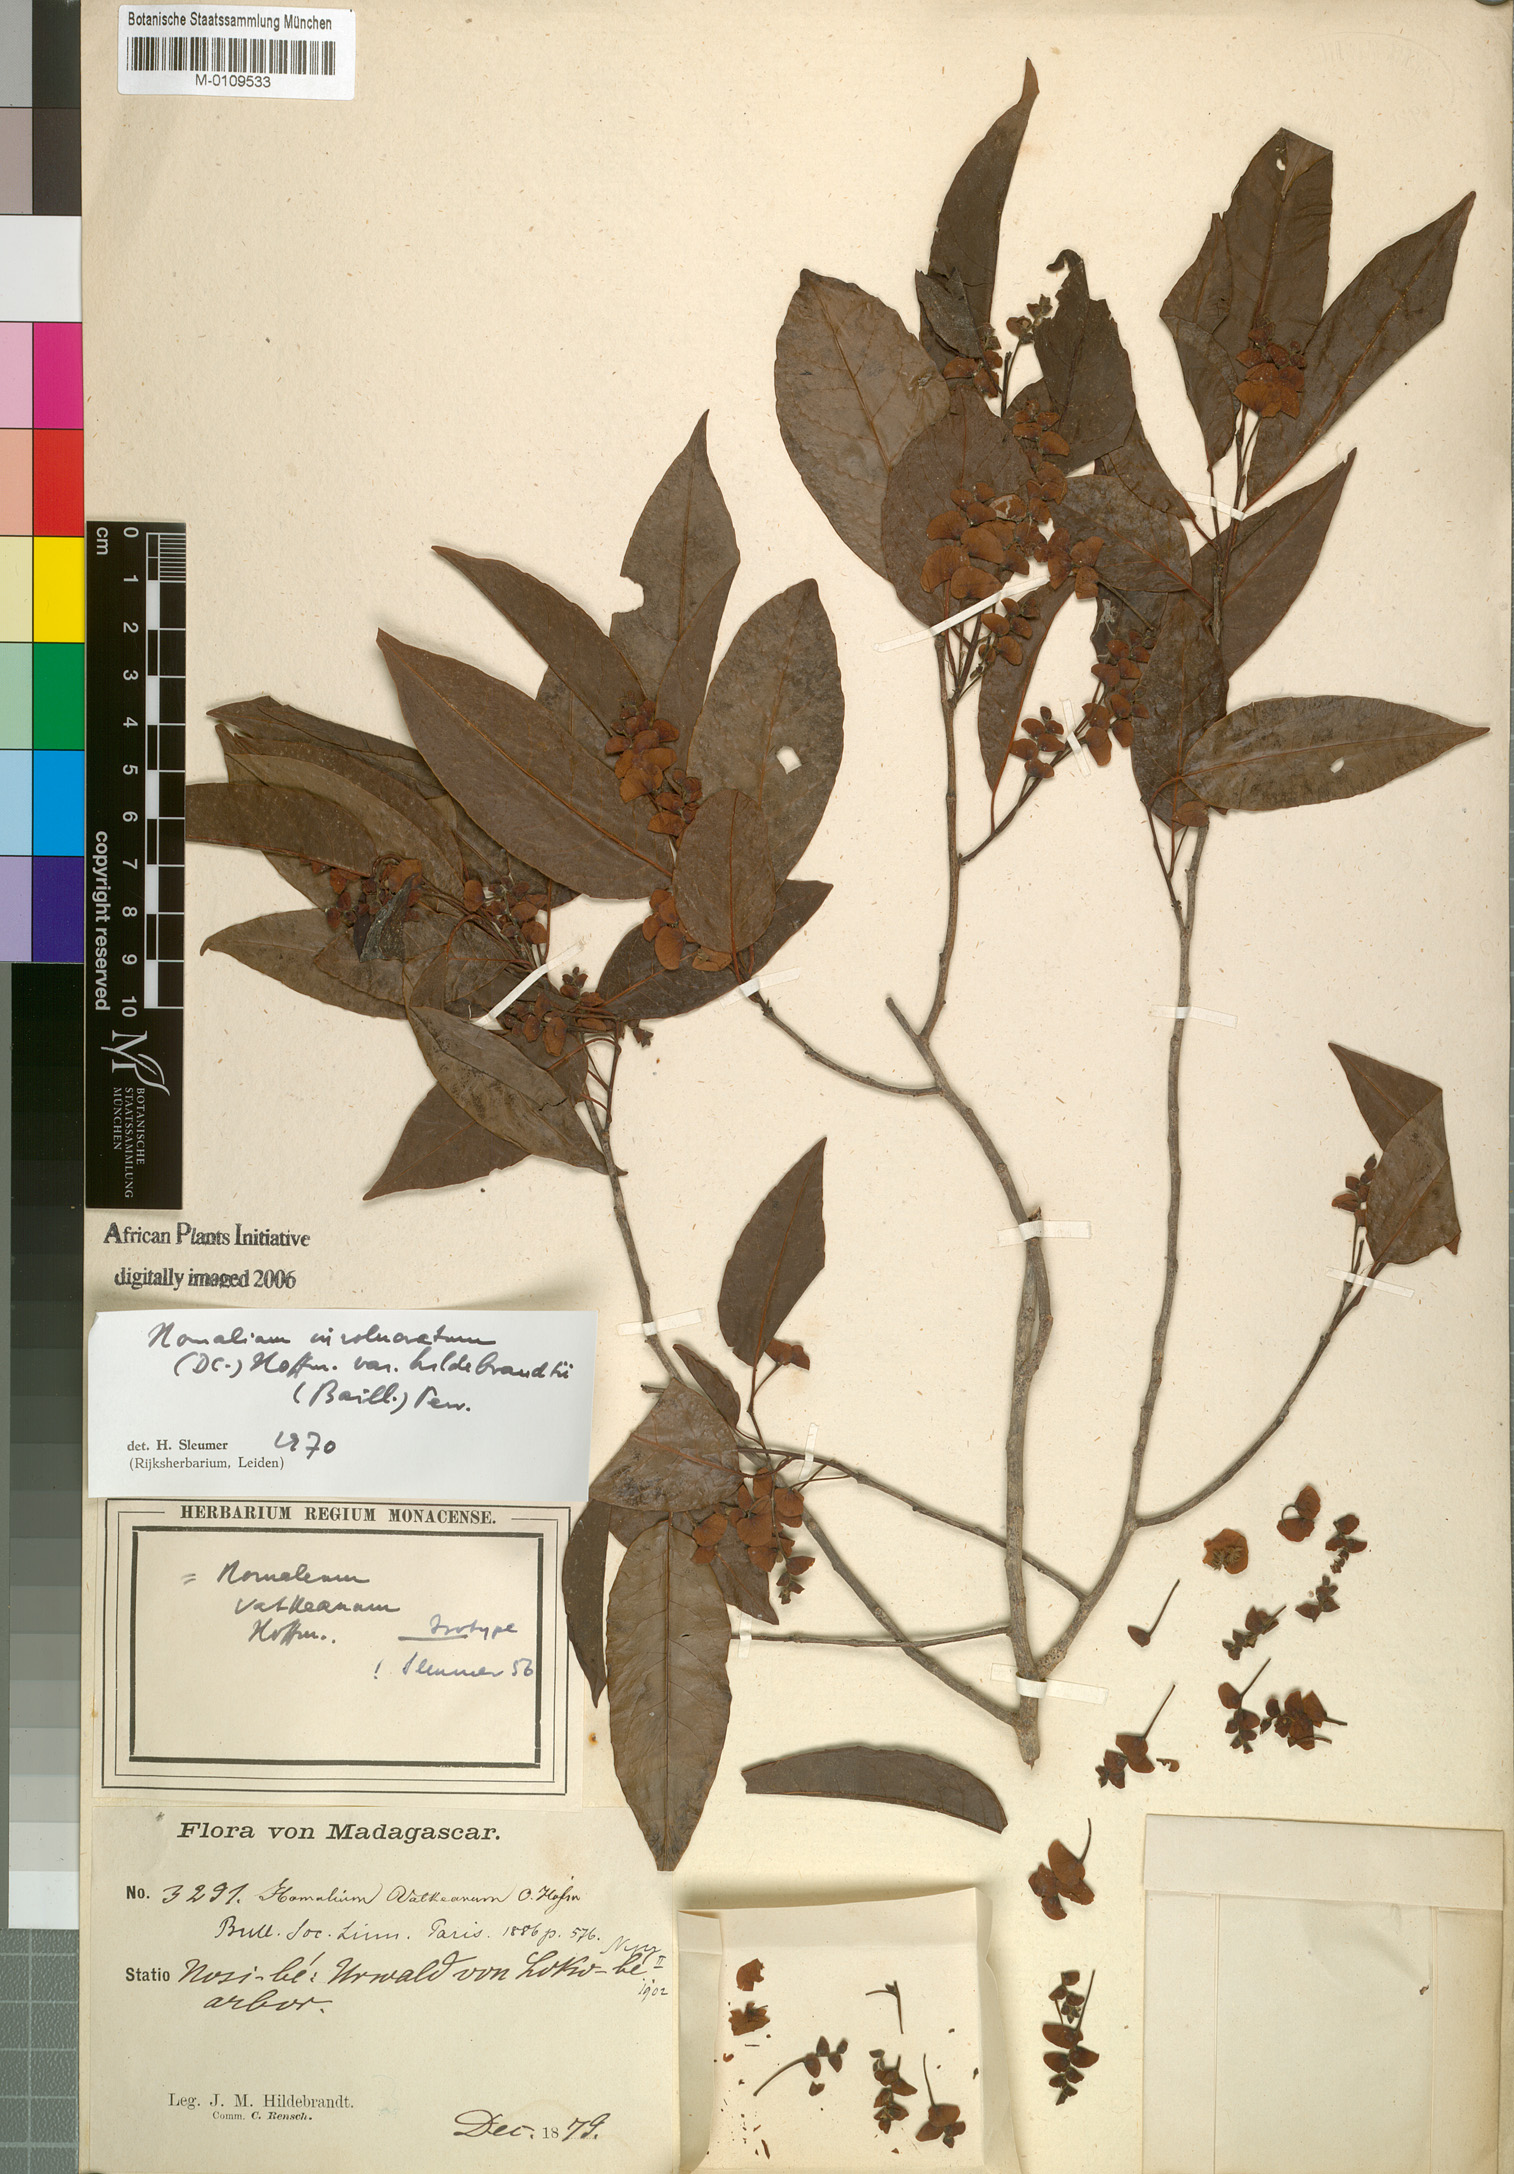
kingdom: Plantae
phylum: Tracheophyta
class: Magnoliopsida
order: Malpighiales
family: Salicaceae
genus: Homalium
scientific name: Homalium involucratum
